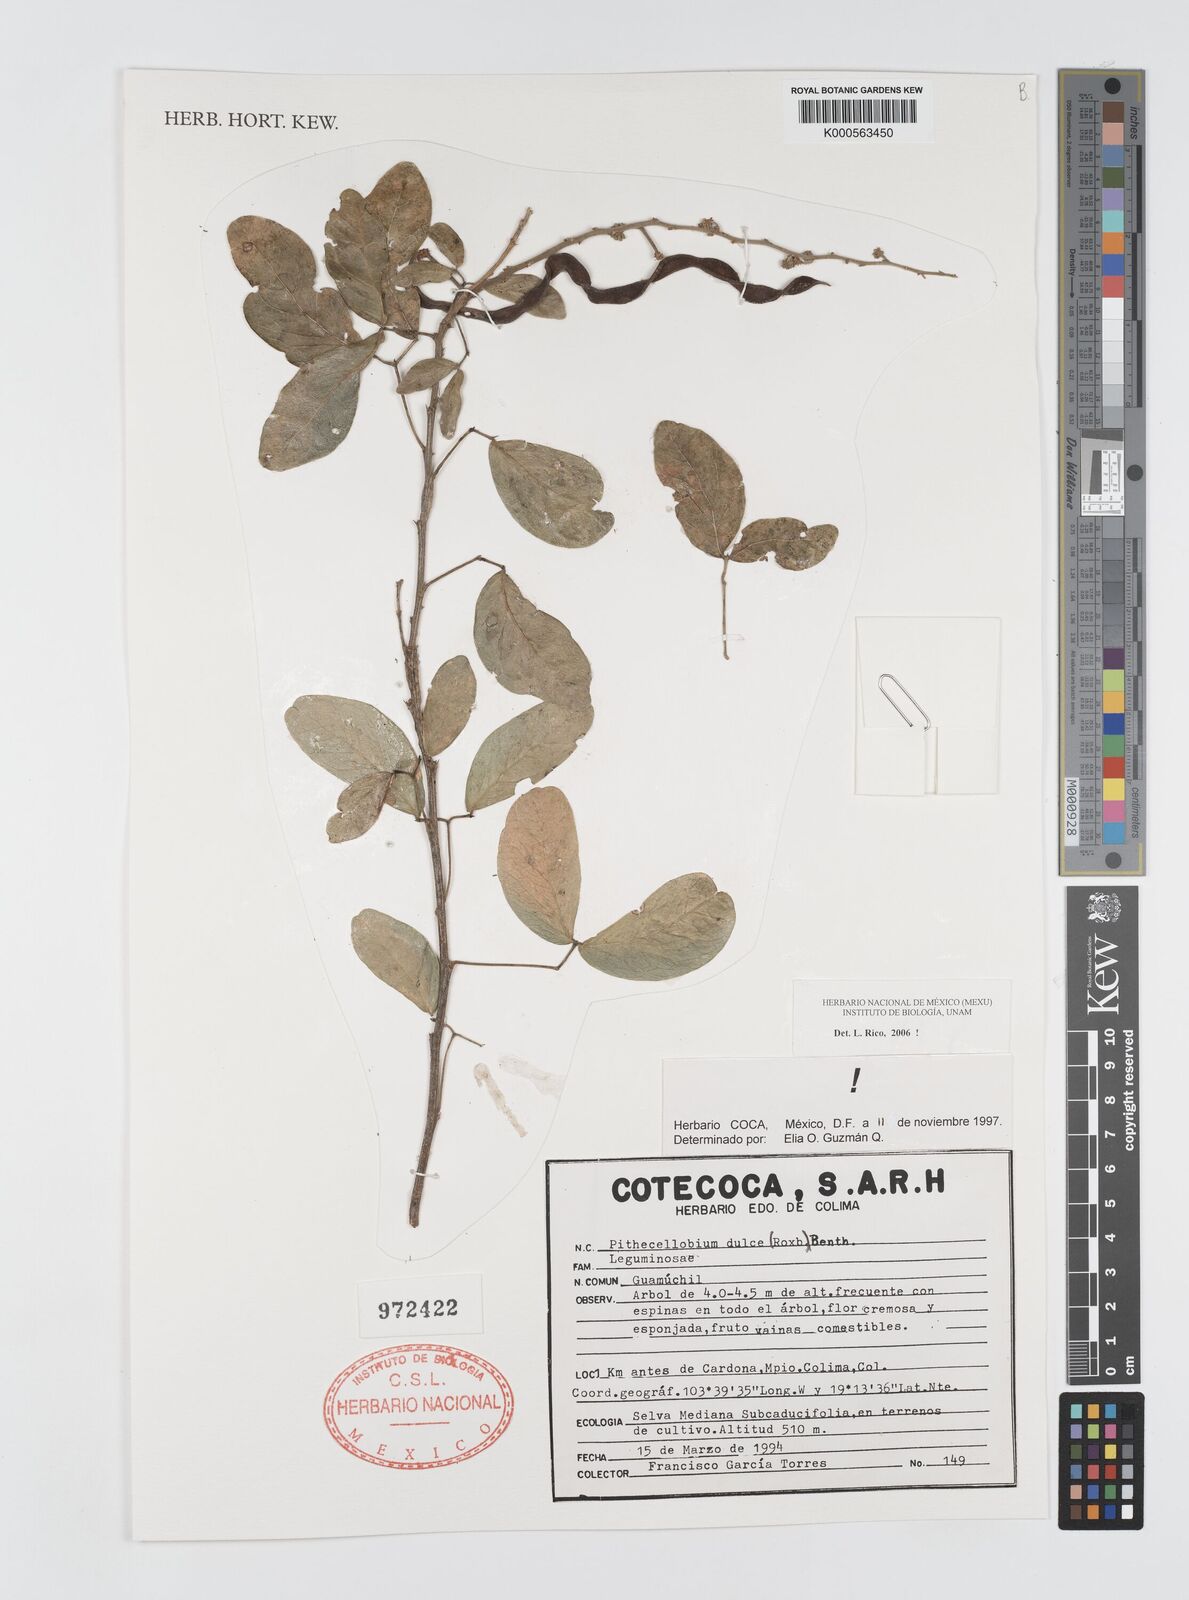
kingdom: Plantae
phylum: Tracheophyta
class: Magnoliopsida
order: Fabales
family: Fabaceae
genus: Pithecellobium
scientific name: Pithecellobium dulce
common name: Monkeypod
